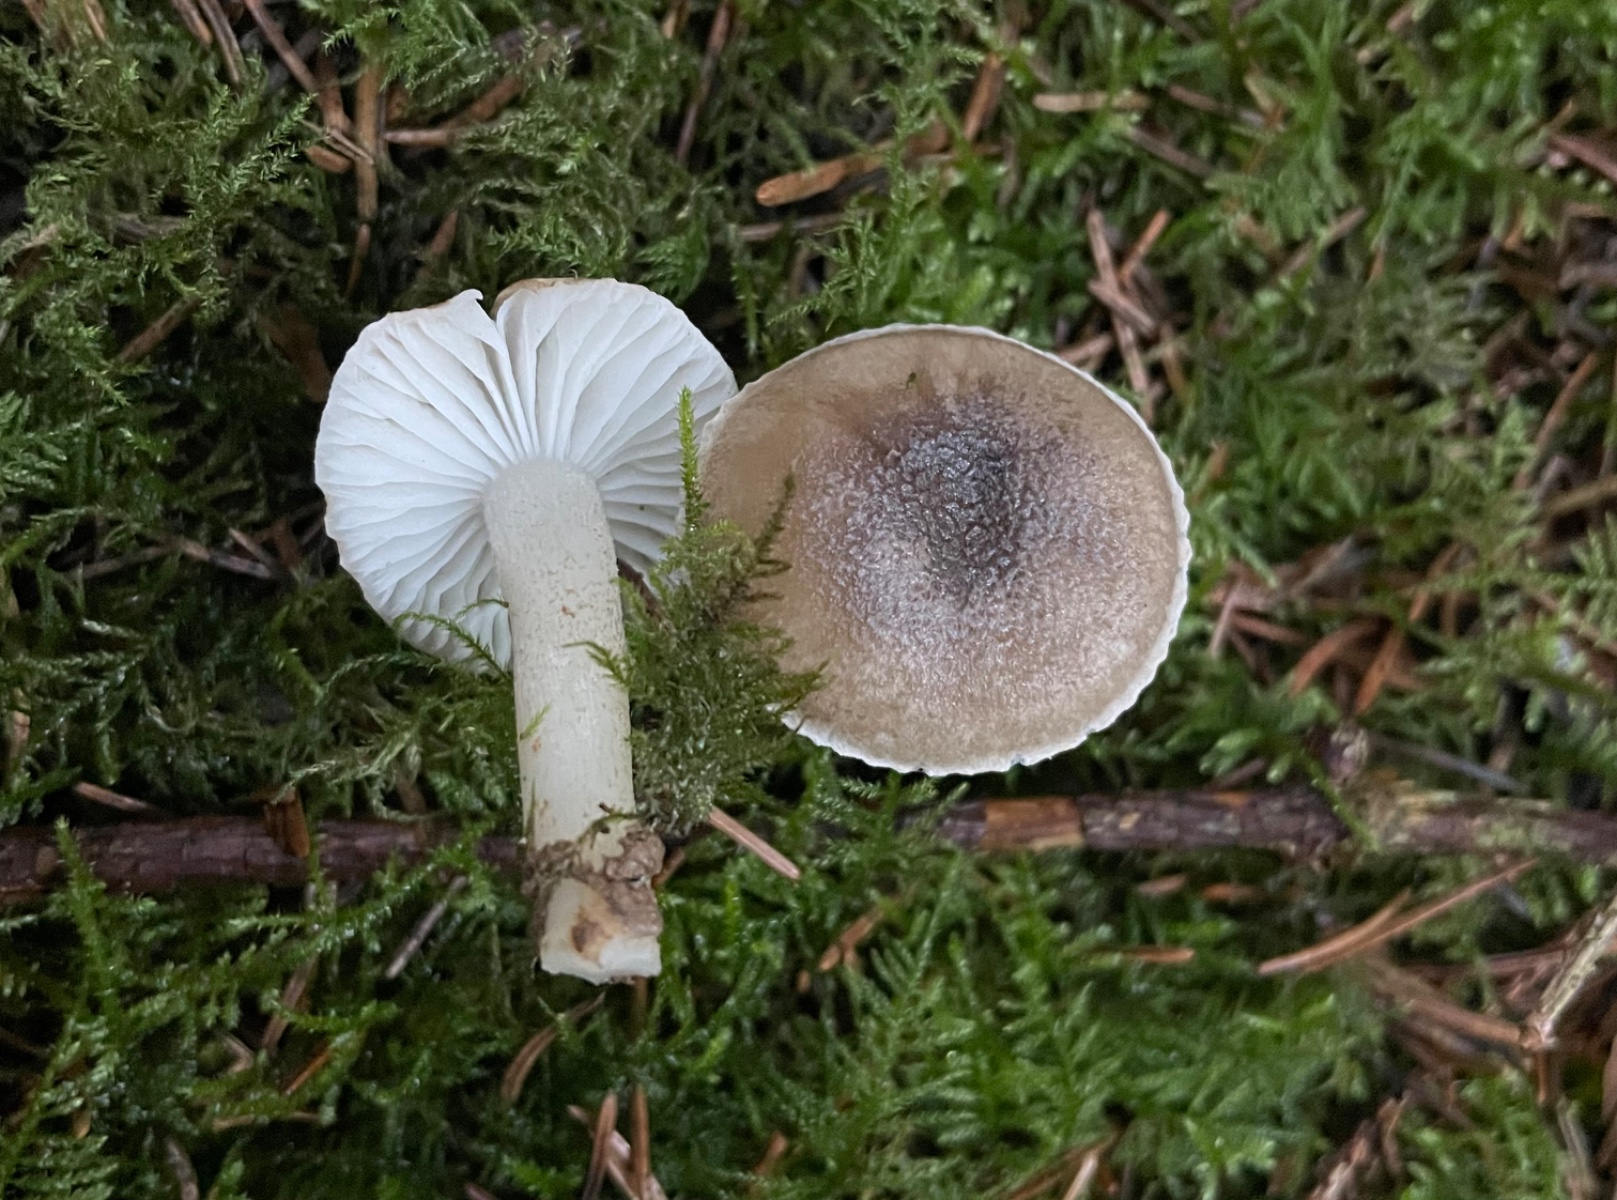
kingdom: Fungi
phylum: Basidiomycota
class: Agaricomycetes
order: Agaricales
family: Hygrophoraceae
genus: Hygrophorus
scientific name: Hygrophorus pustulatus
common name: mørkprikket sneglehat
